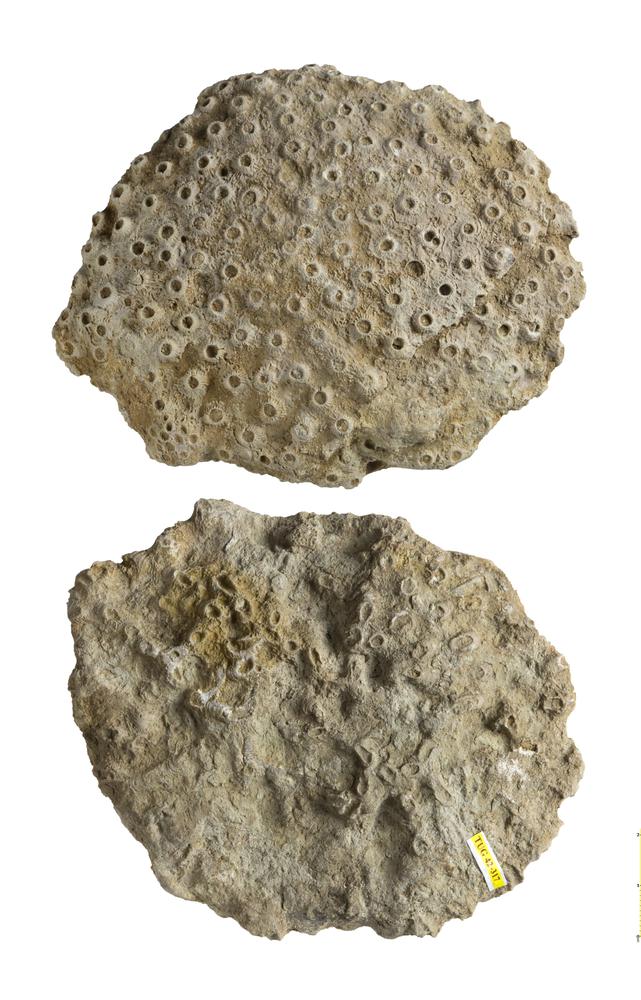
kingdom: Animalia
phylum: Cnidaria
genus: Syringophyllum
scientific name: Syringophyllum
